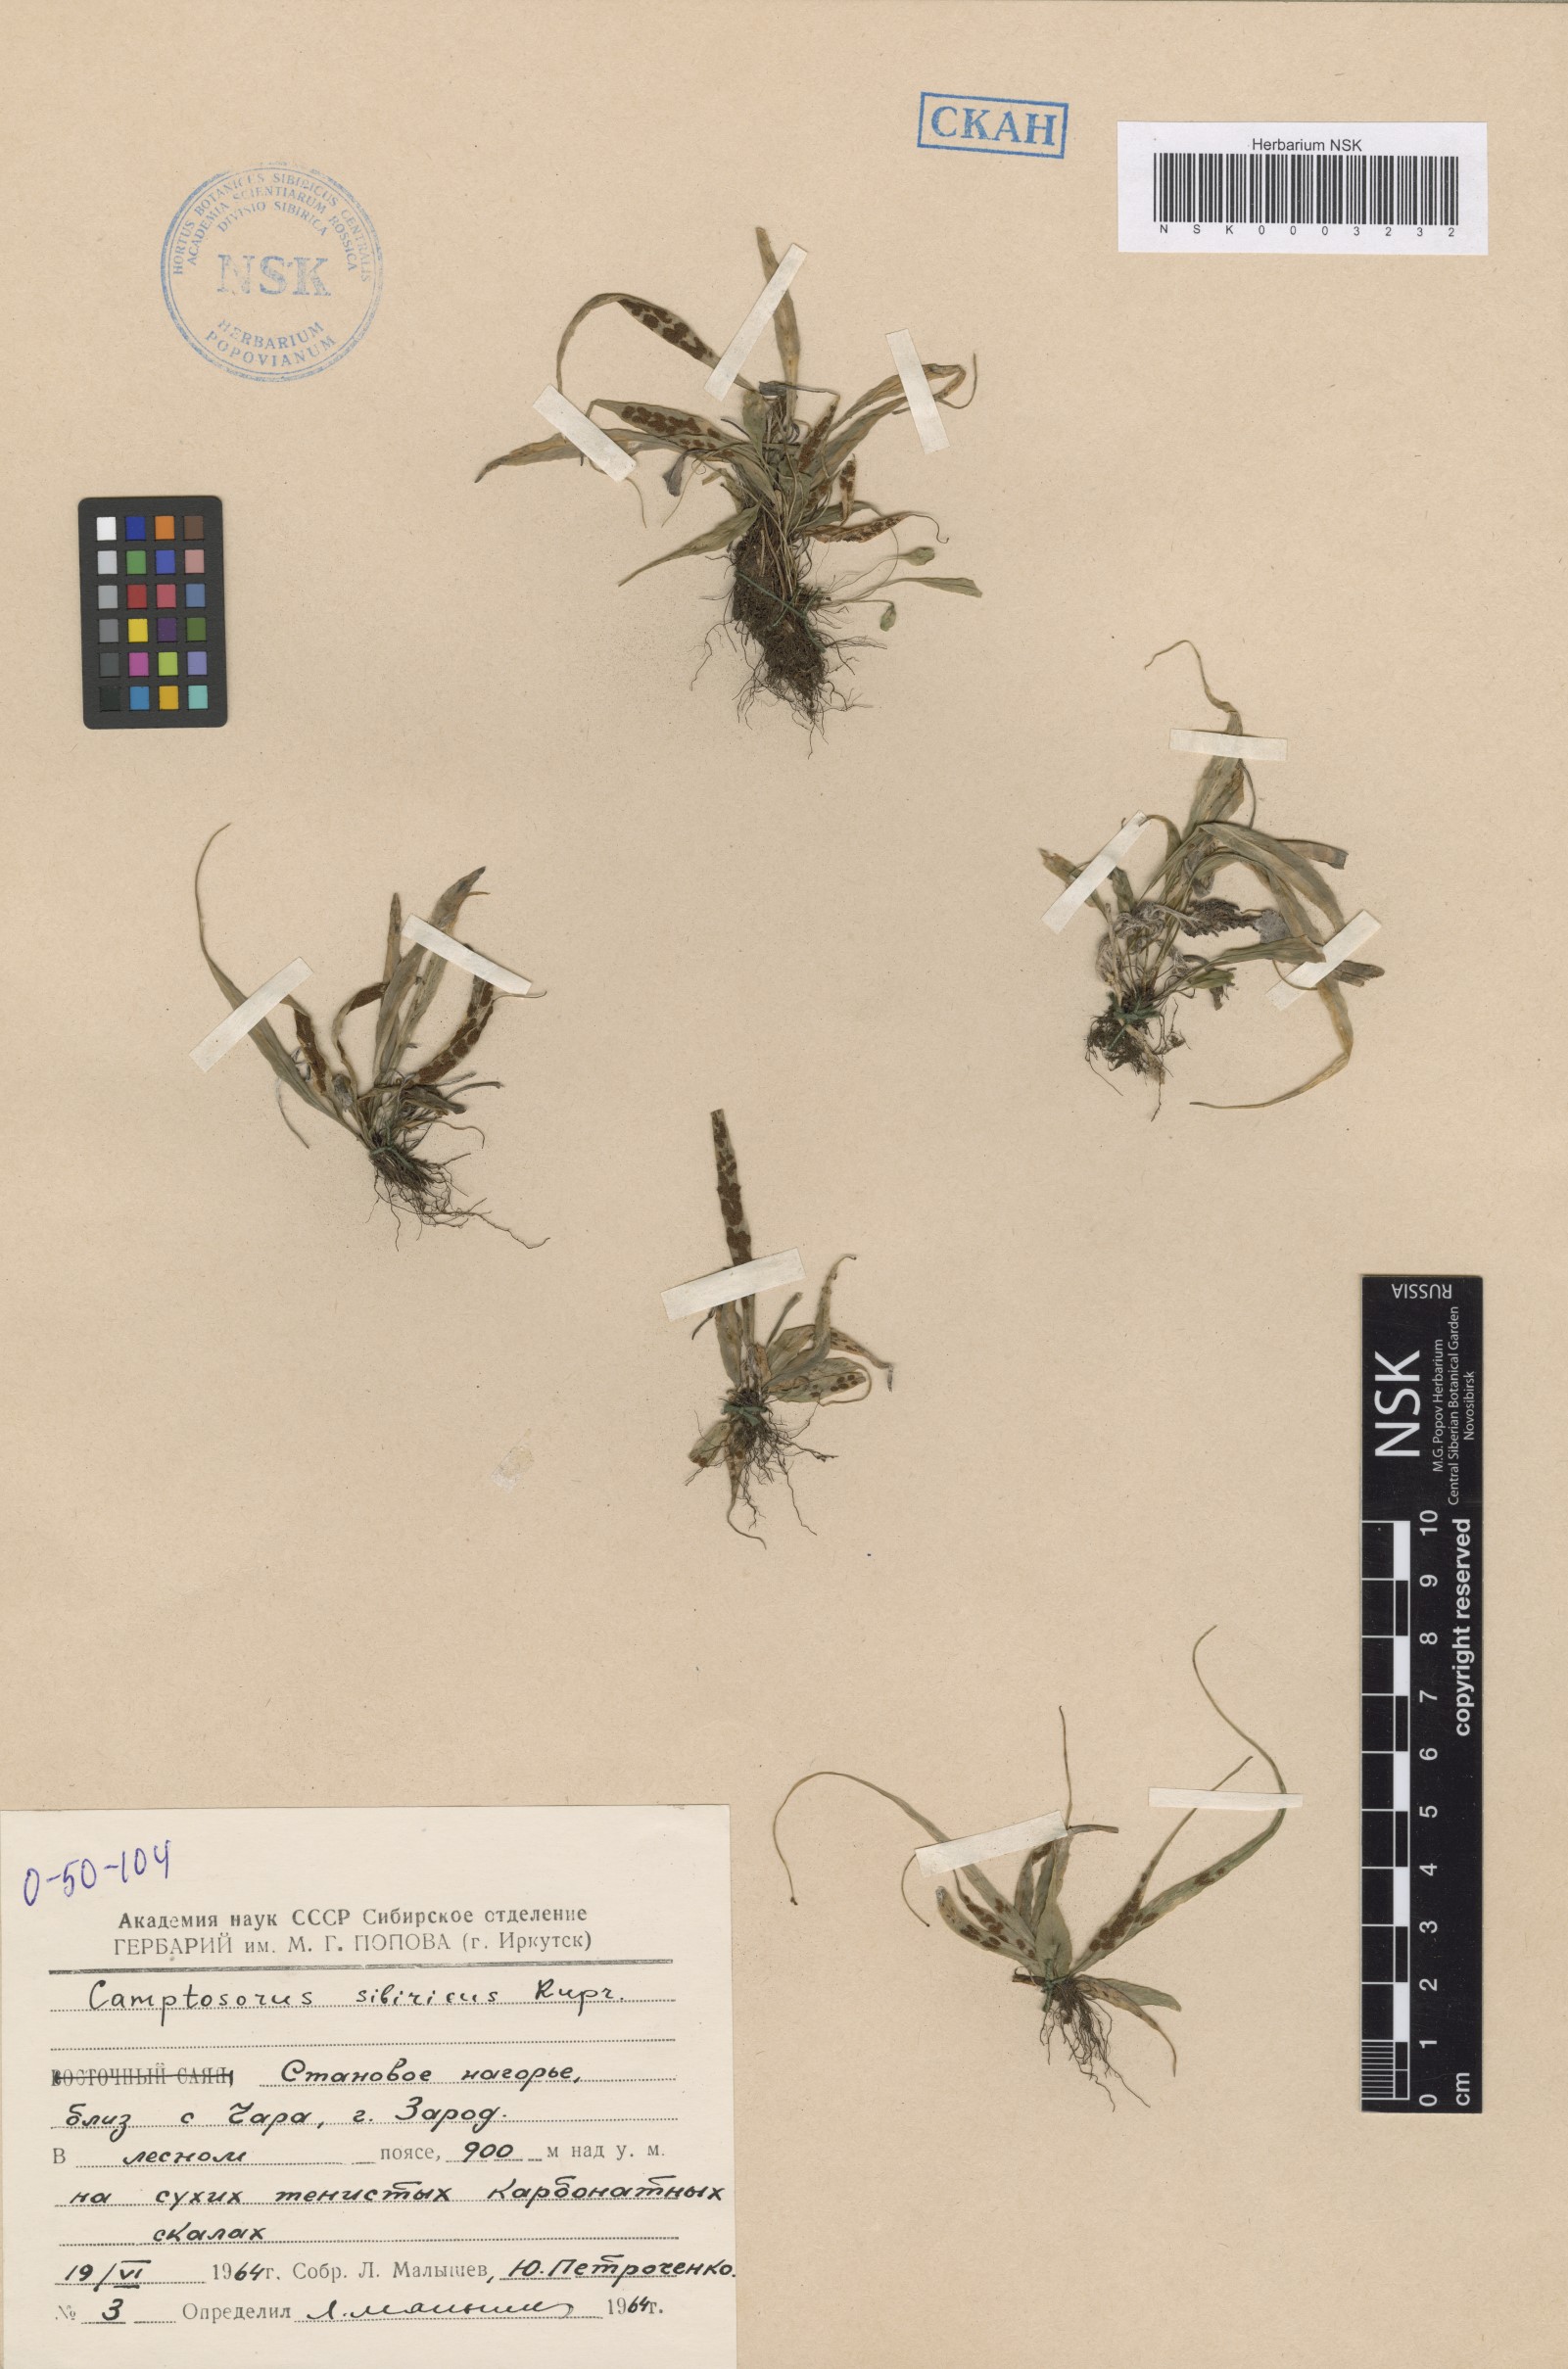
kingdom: Plantae
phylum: Tracheophyta
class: Polypodiopsida
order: Polypodiales
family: Aspleniaceae
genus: Asplenium
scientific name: Asplenium ruprechtii
